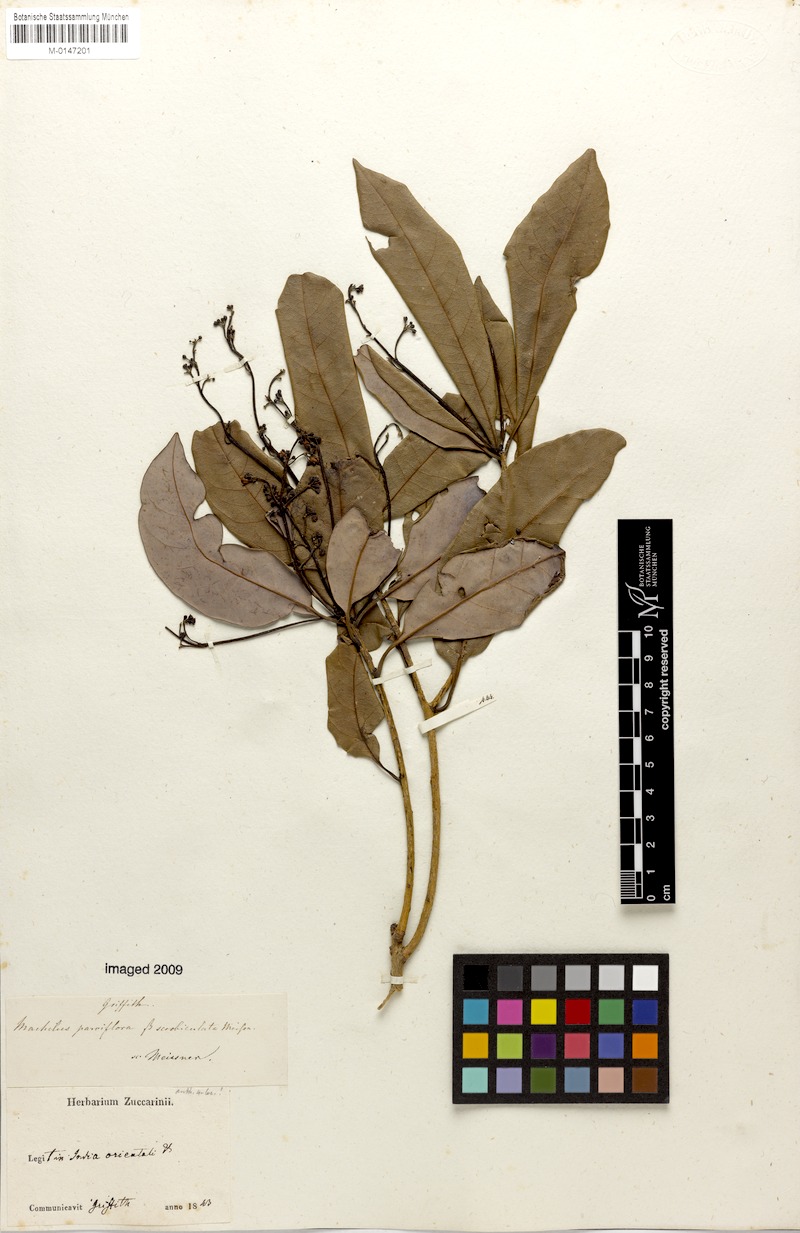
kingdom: Plantae
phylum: Tracheophyta
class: Magnoliopsida
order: Laurales
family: Lauraceae
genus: Machilus
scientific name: Machilus parviflora
